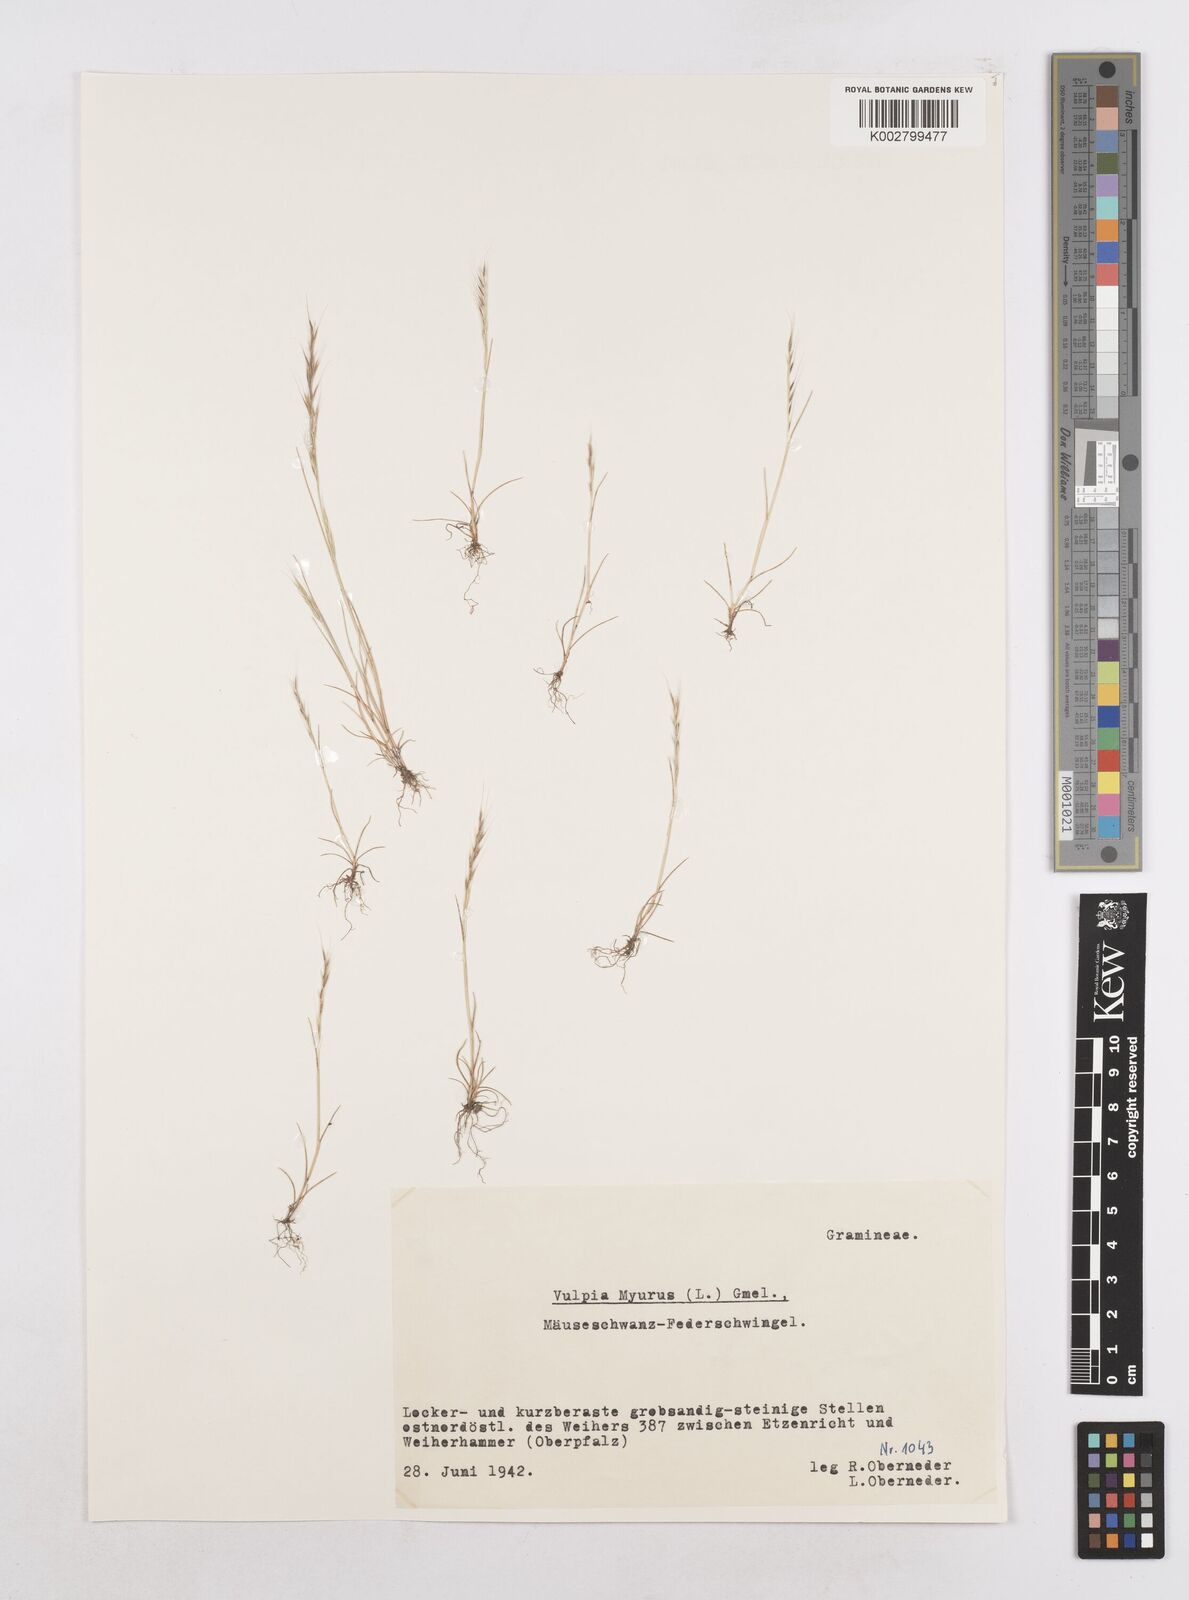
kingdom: Plantae
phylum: Tracheophyta
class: Liliopsida
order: Poales
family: Poaceae
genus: Festuca
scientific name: Festuca myuros
